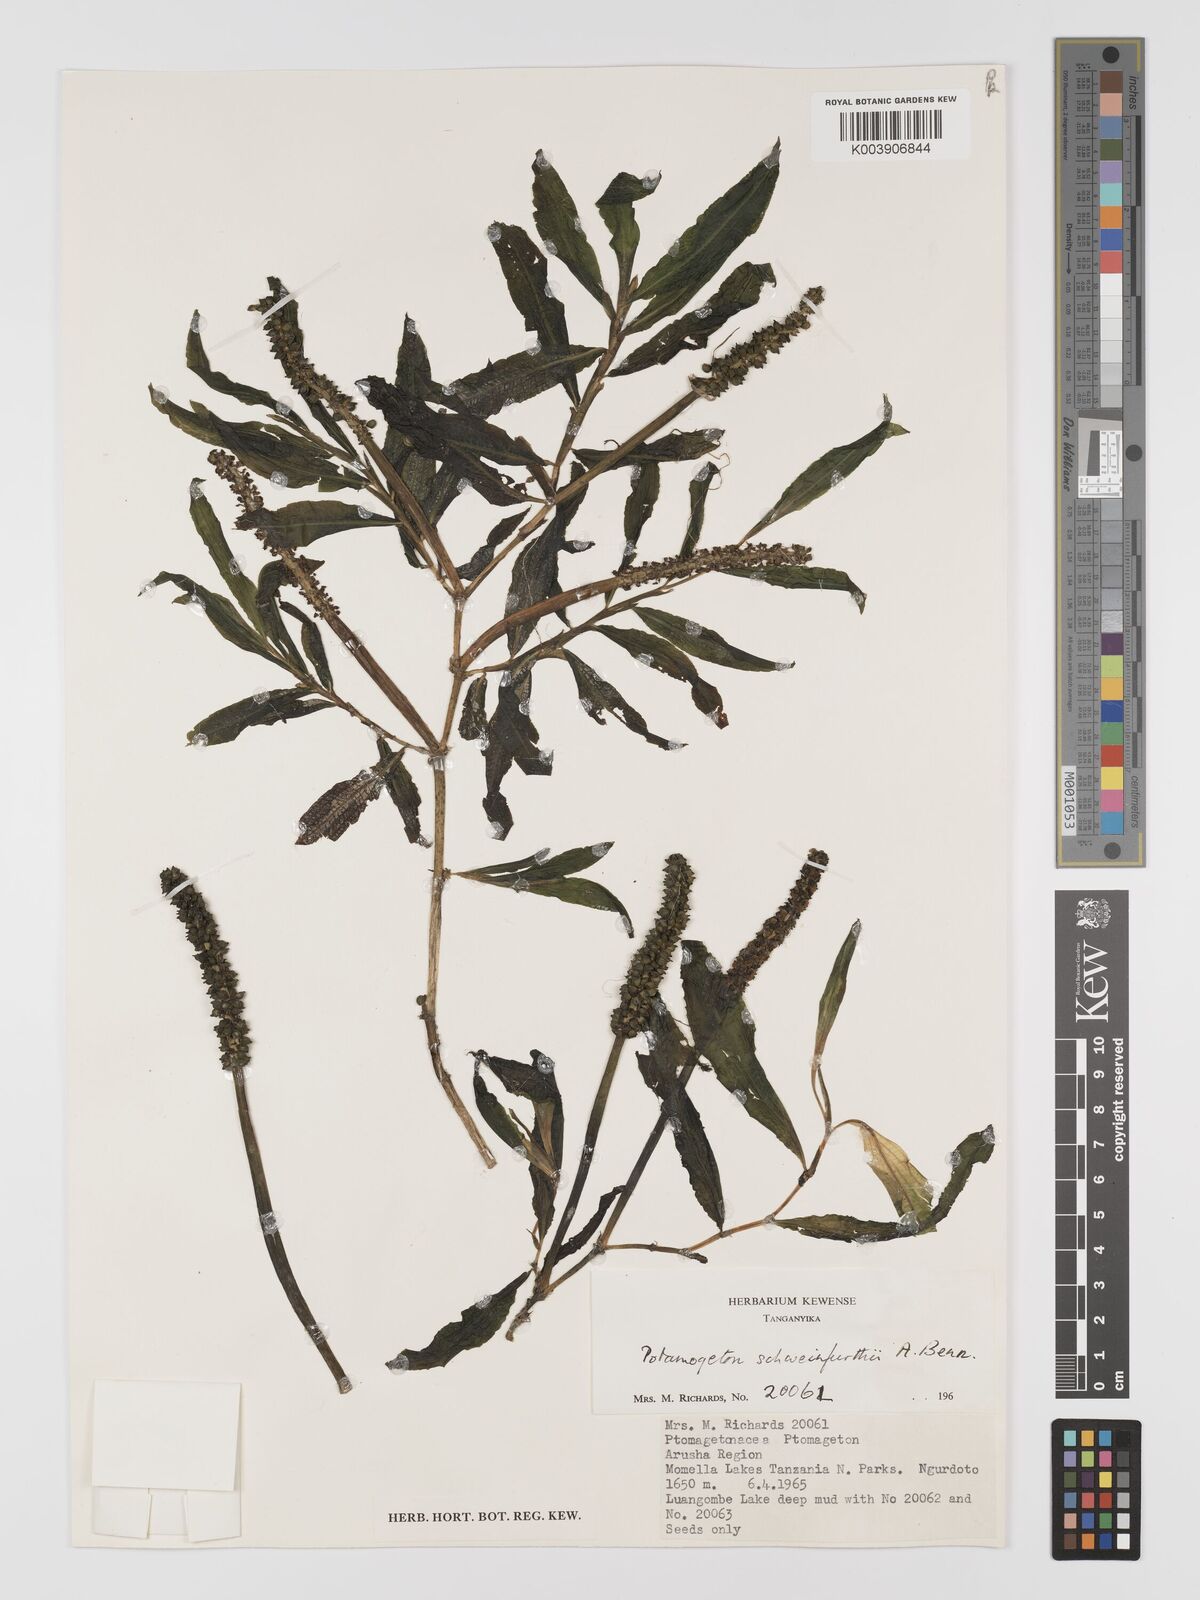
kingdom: Plantae
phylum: Tracheophyta
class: Liliopsida
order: Alismatales
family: Potamogetonaceae
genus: Potamogeton
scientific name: Potamogeton schweinfurthii
